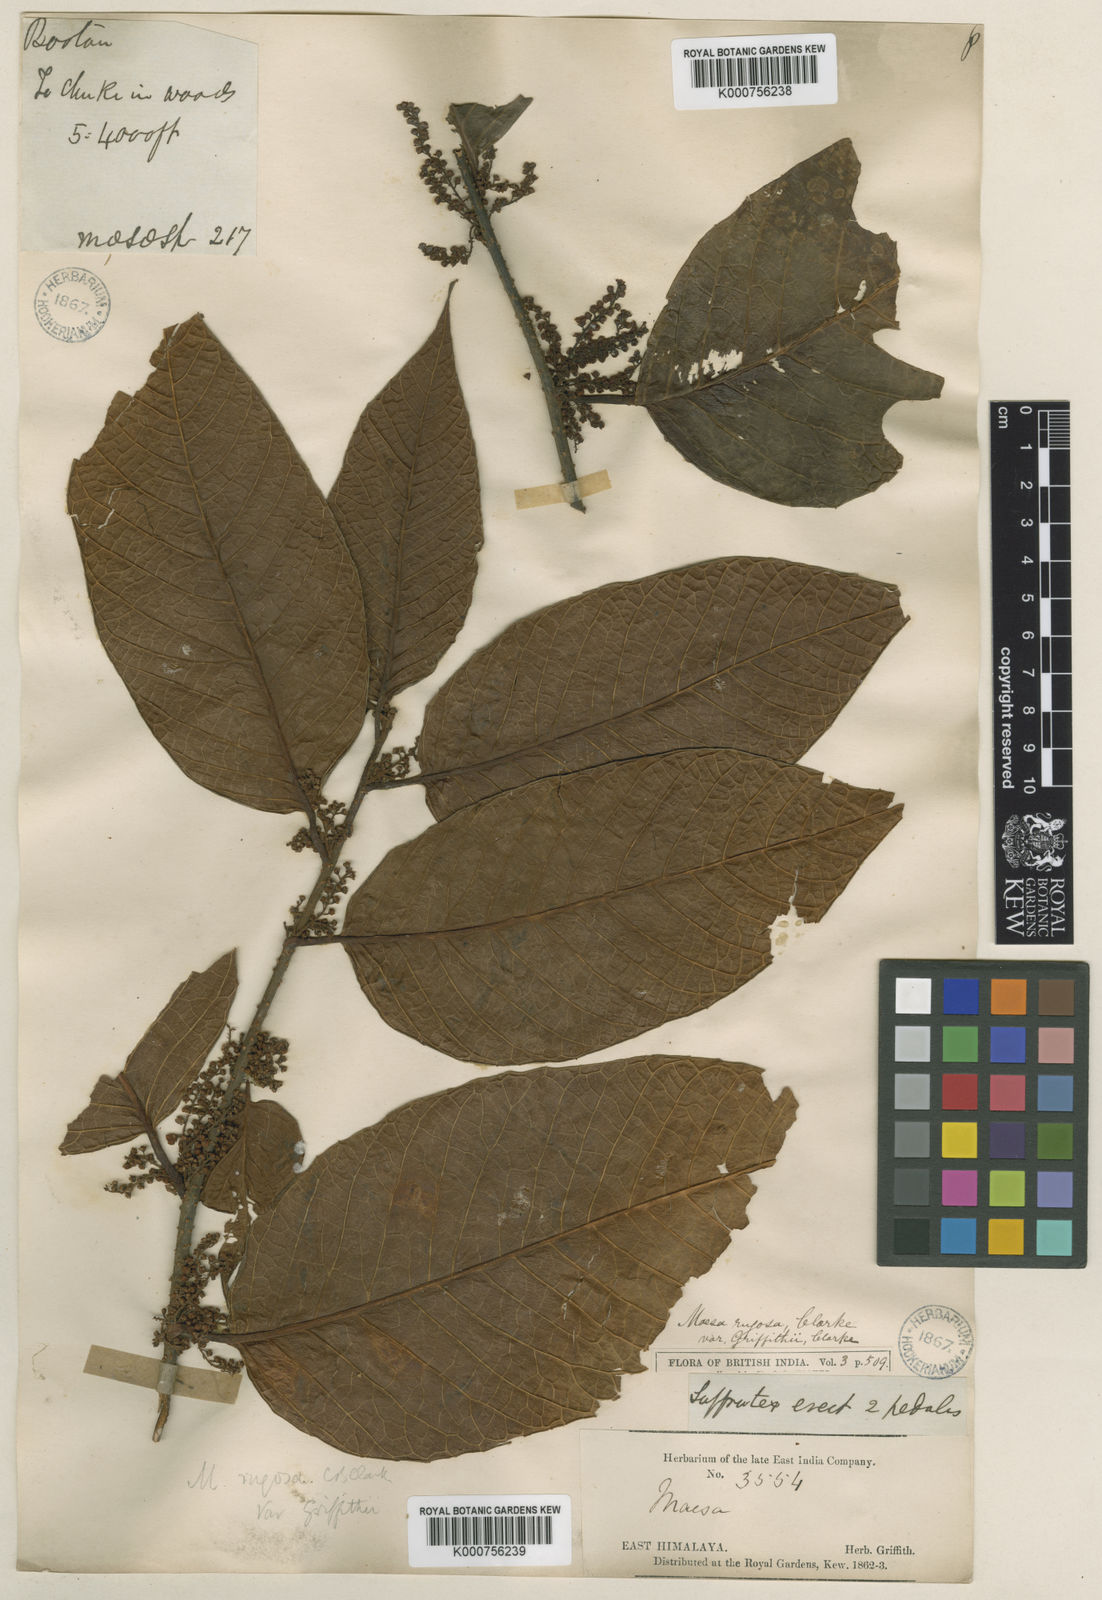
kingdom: Plantae
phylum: Tracheophyta
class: Magnoliopsida
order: Ericales
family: Primulaceae
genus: Maesa
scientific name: Maesa rugosa
